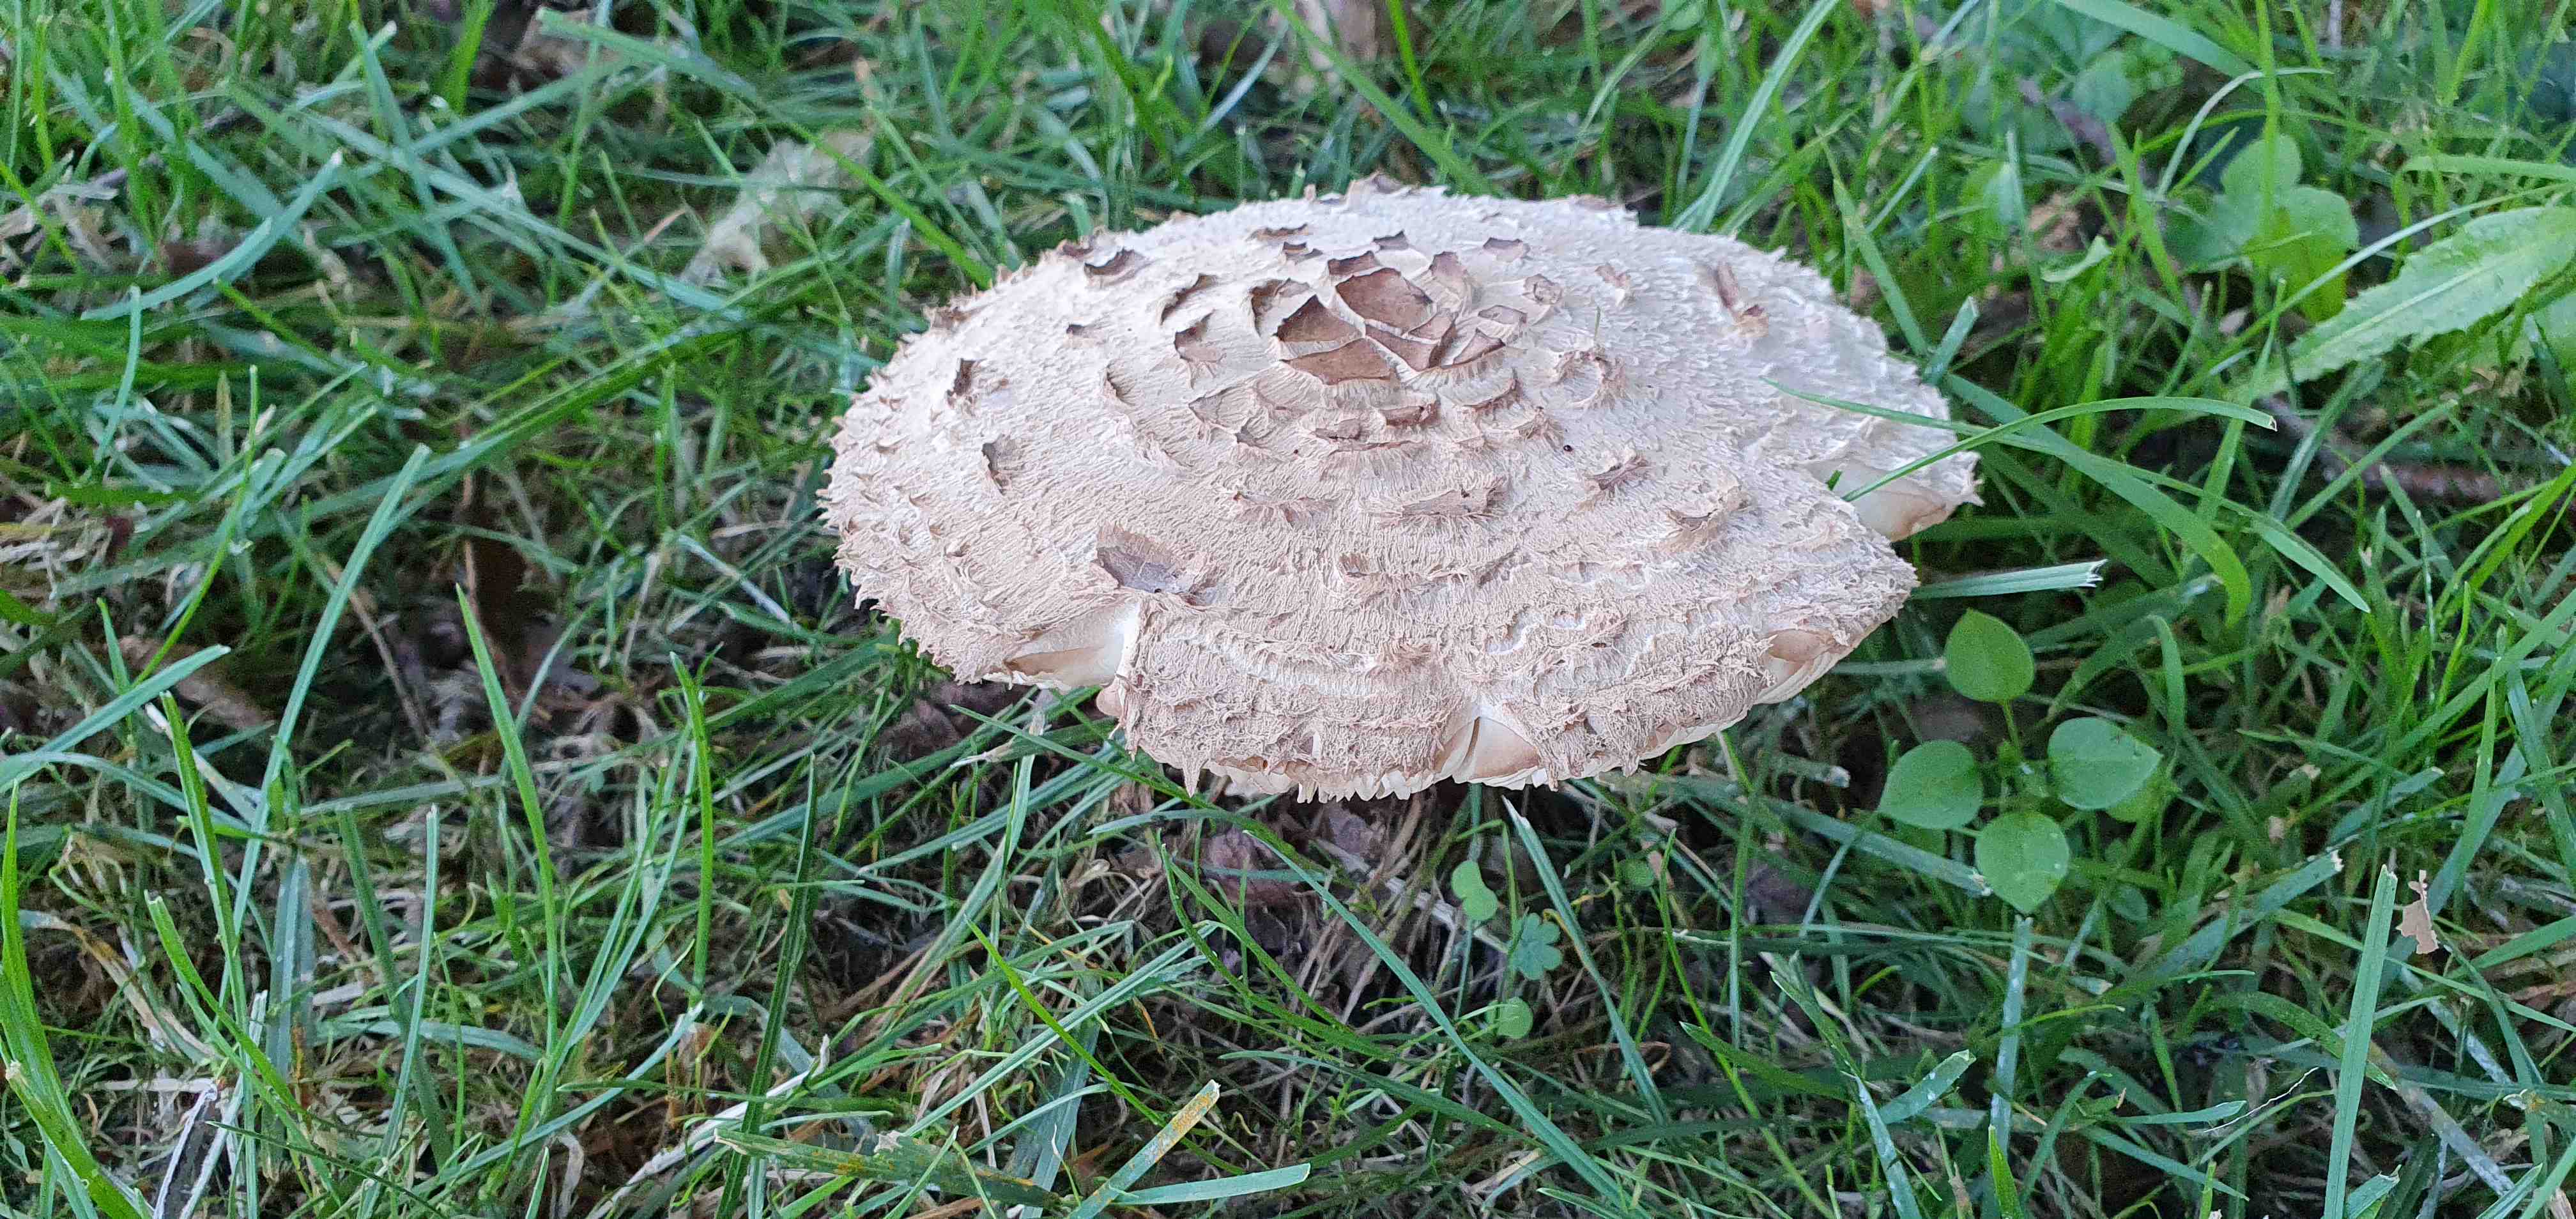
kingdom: Fungi
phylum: Basidiomycota
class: Agaricomycetes
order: Agaricales
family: Agaricaceae
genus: Chlorophyllum
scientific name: Chlorophyllum rhacodes
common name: ægte rabarberhat
